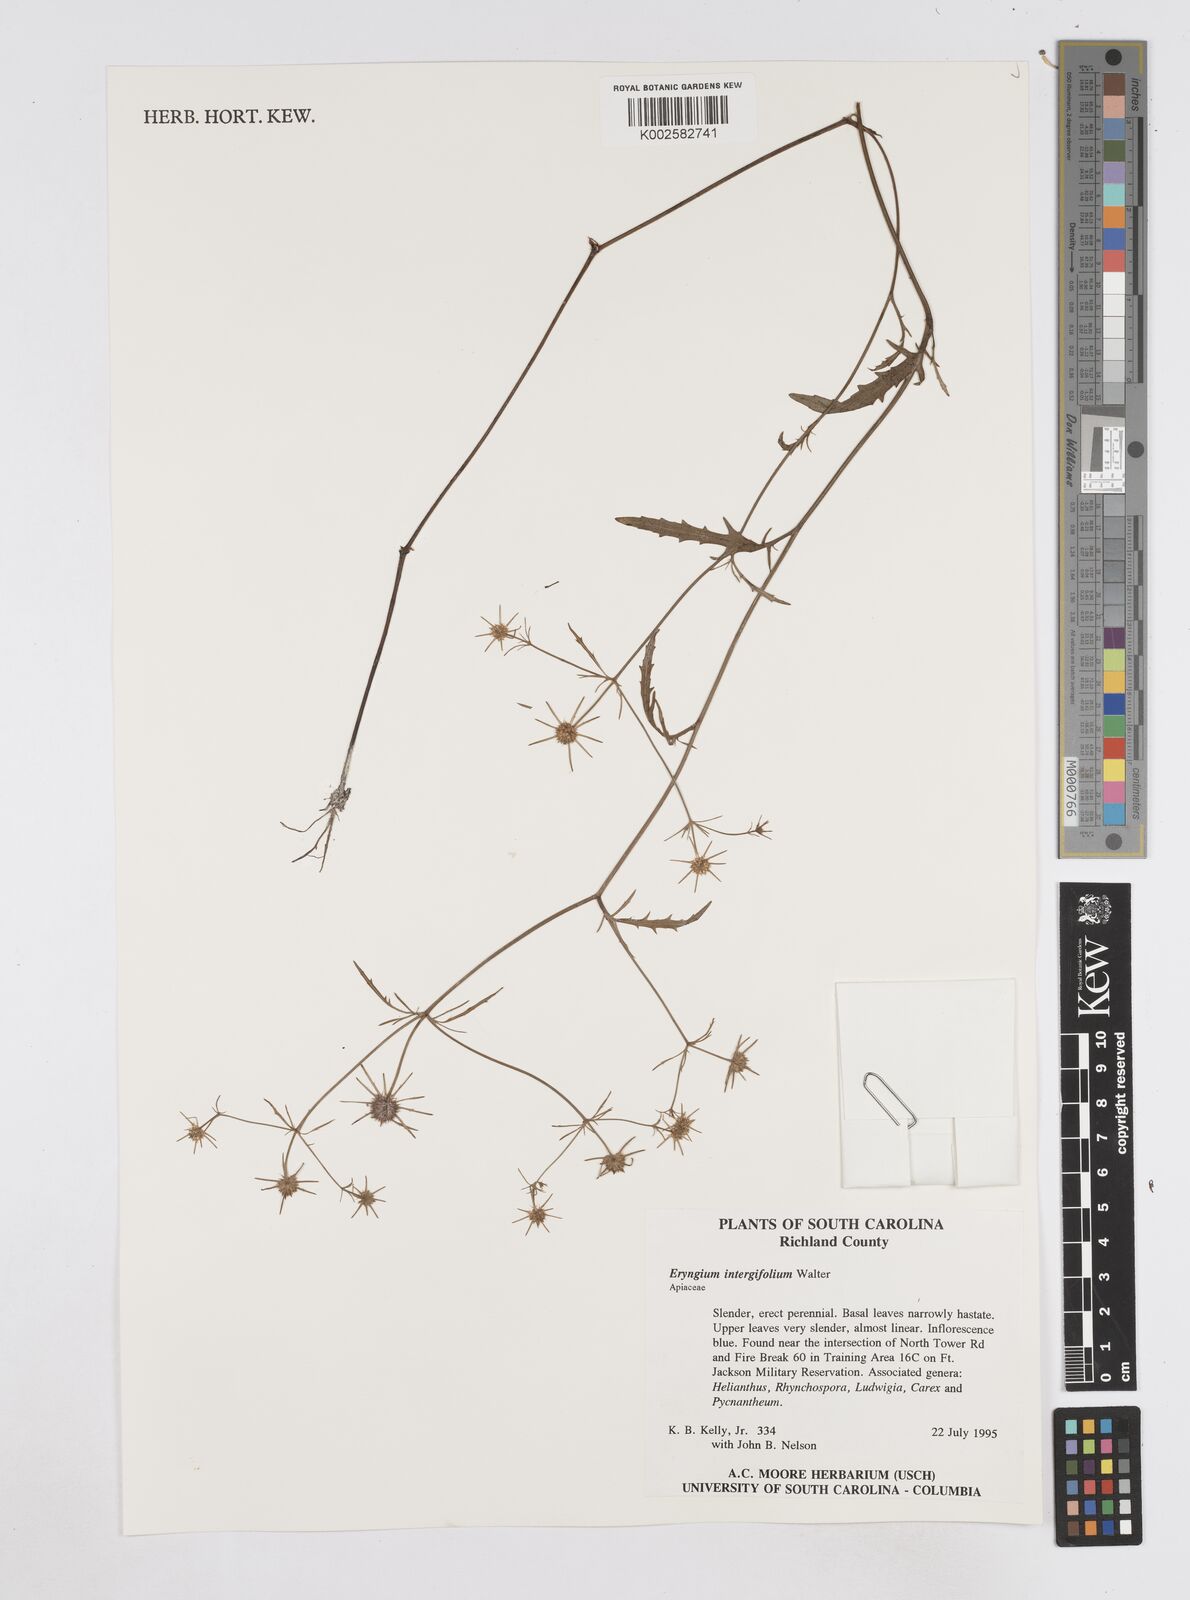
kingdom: Plantae
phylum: Tracheophyta
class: Magnoliopsida
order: Apiales
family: Apiaceae
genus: Eryngium
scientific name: Eryngium integrifolium
